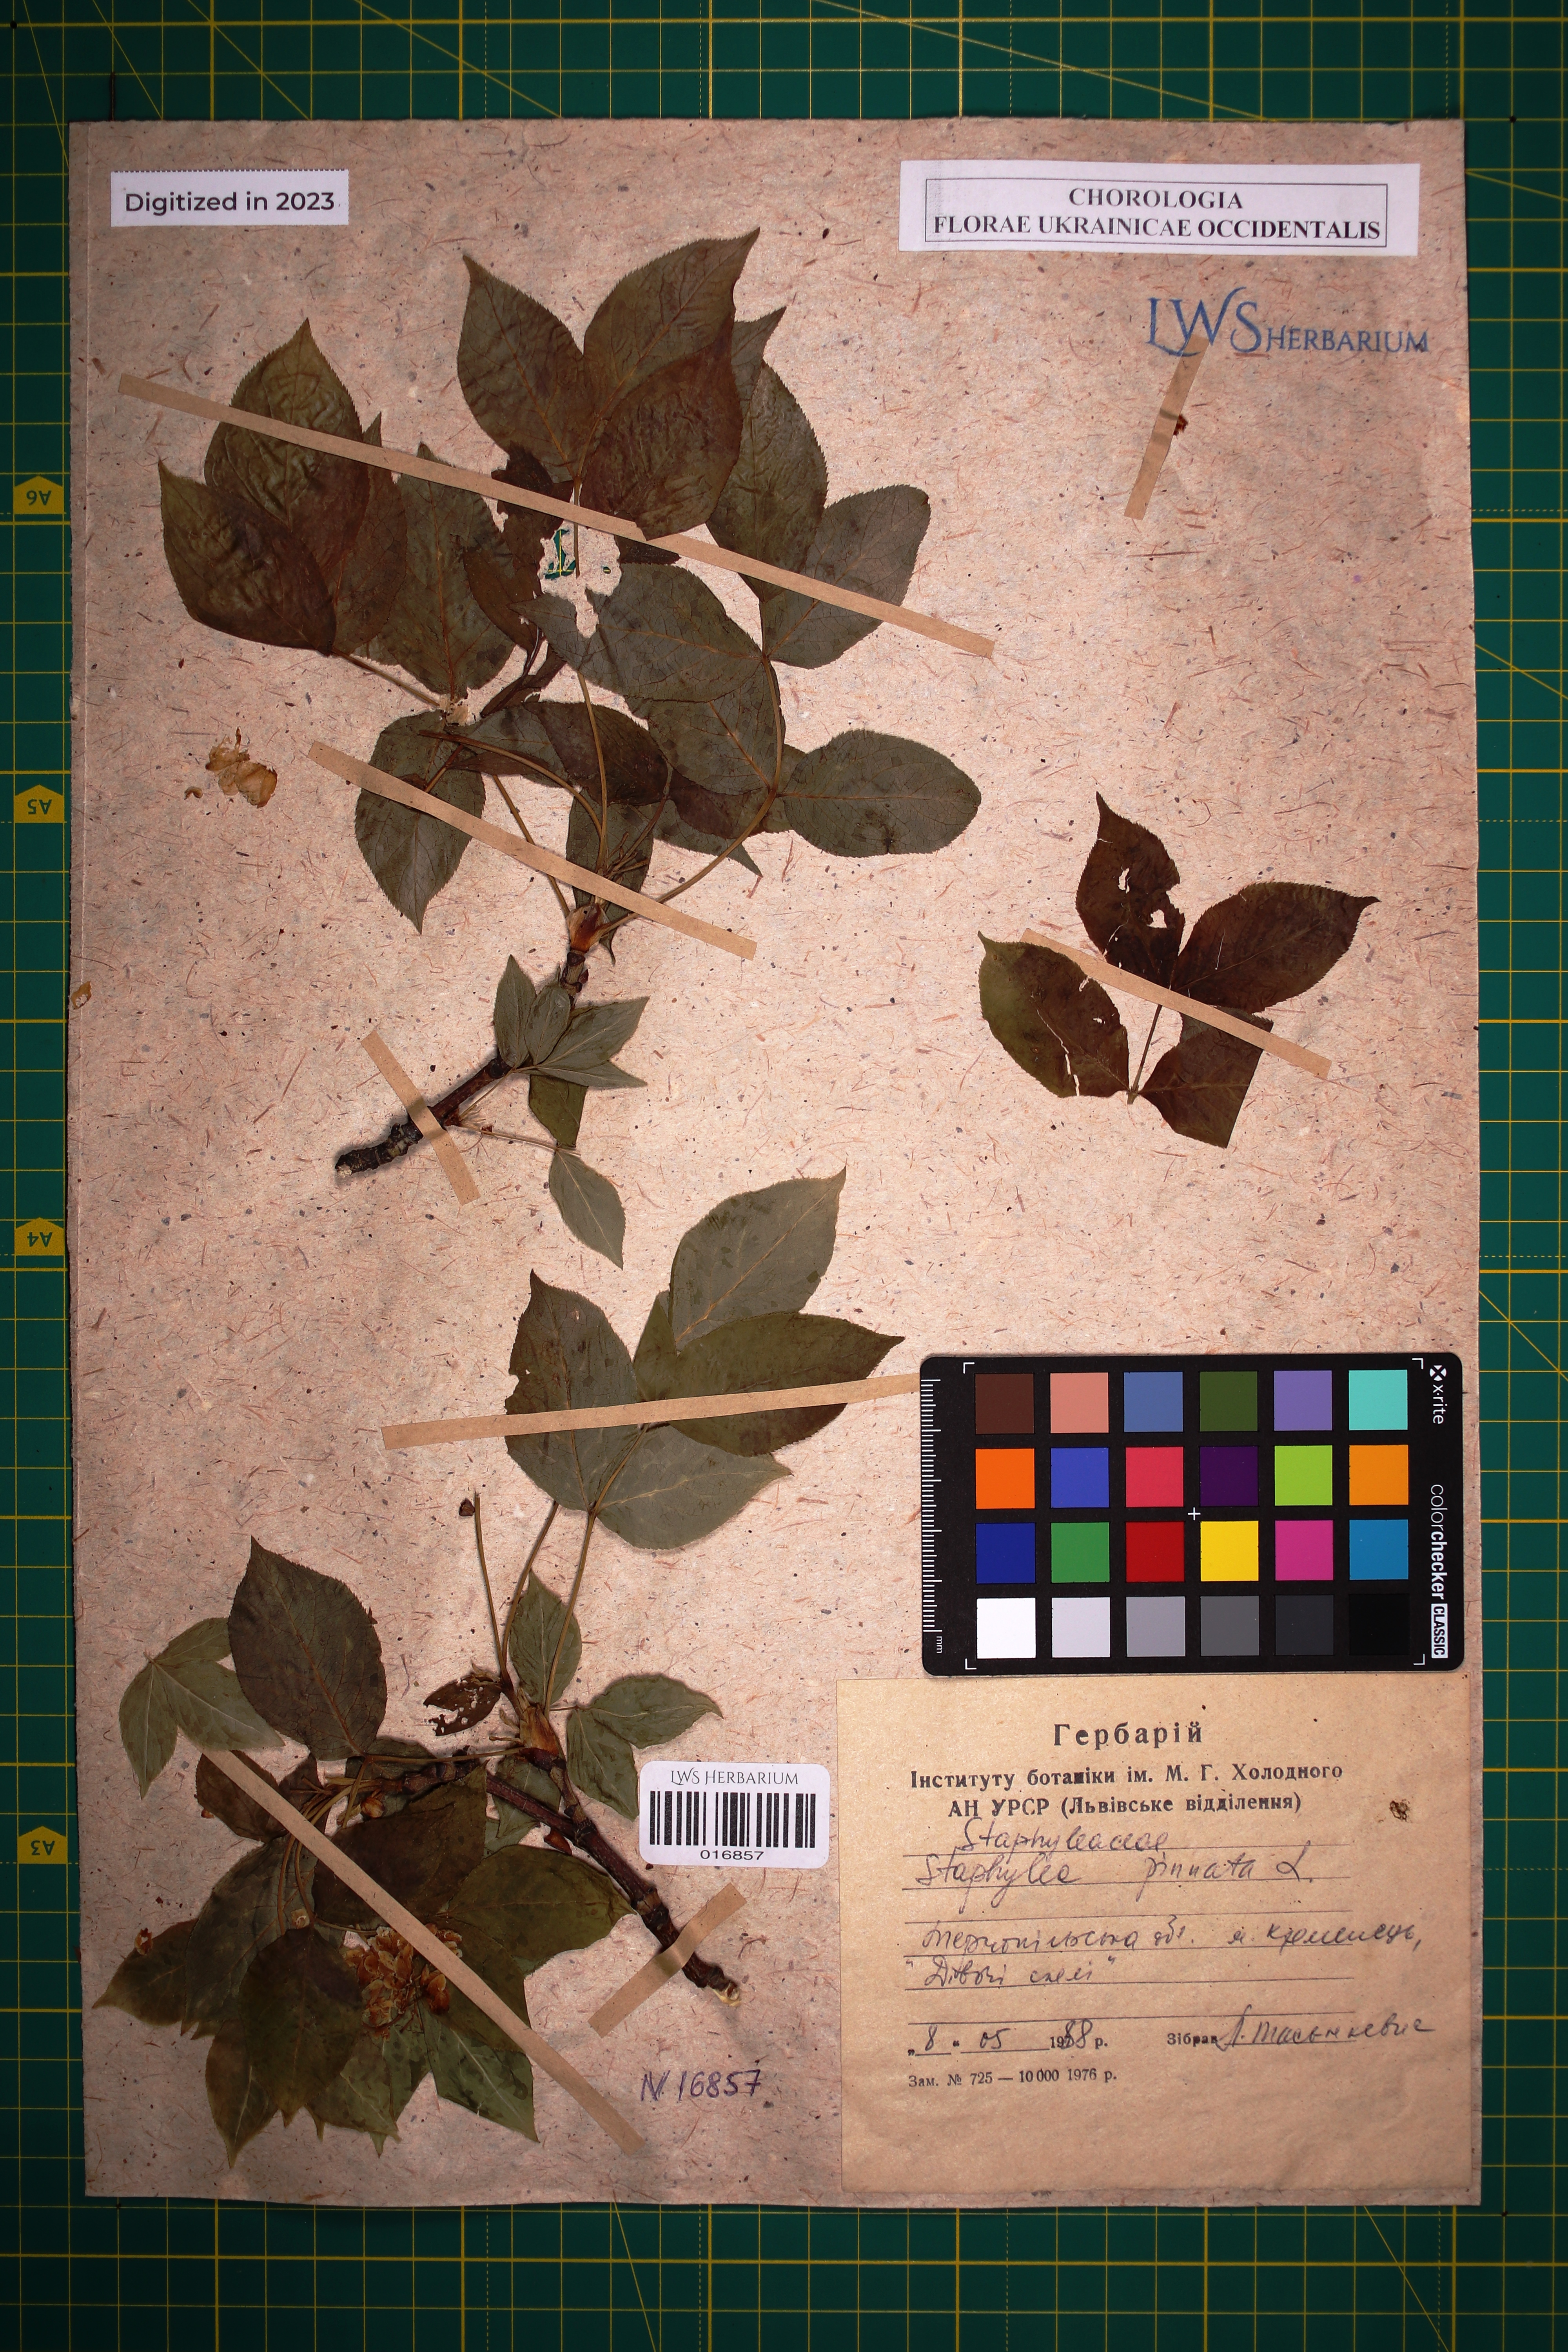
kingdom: Plantae
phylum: Tracheophyta
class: Magnoliopsida
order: Crossosomatales
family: Staphyleaceae
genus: Staphylea
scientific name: Staphylea pinnata
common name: Bladdernut
